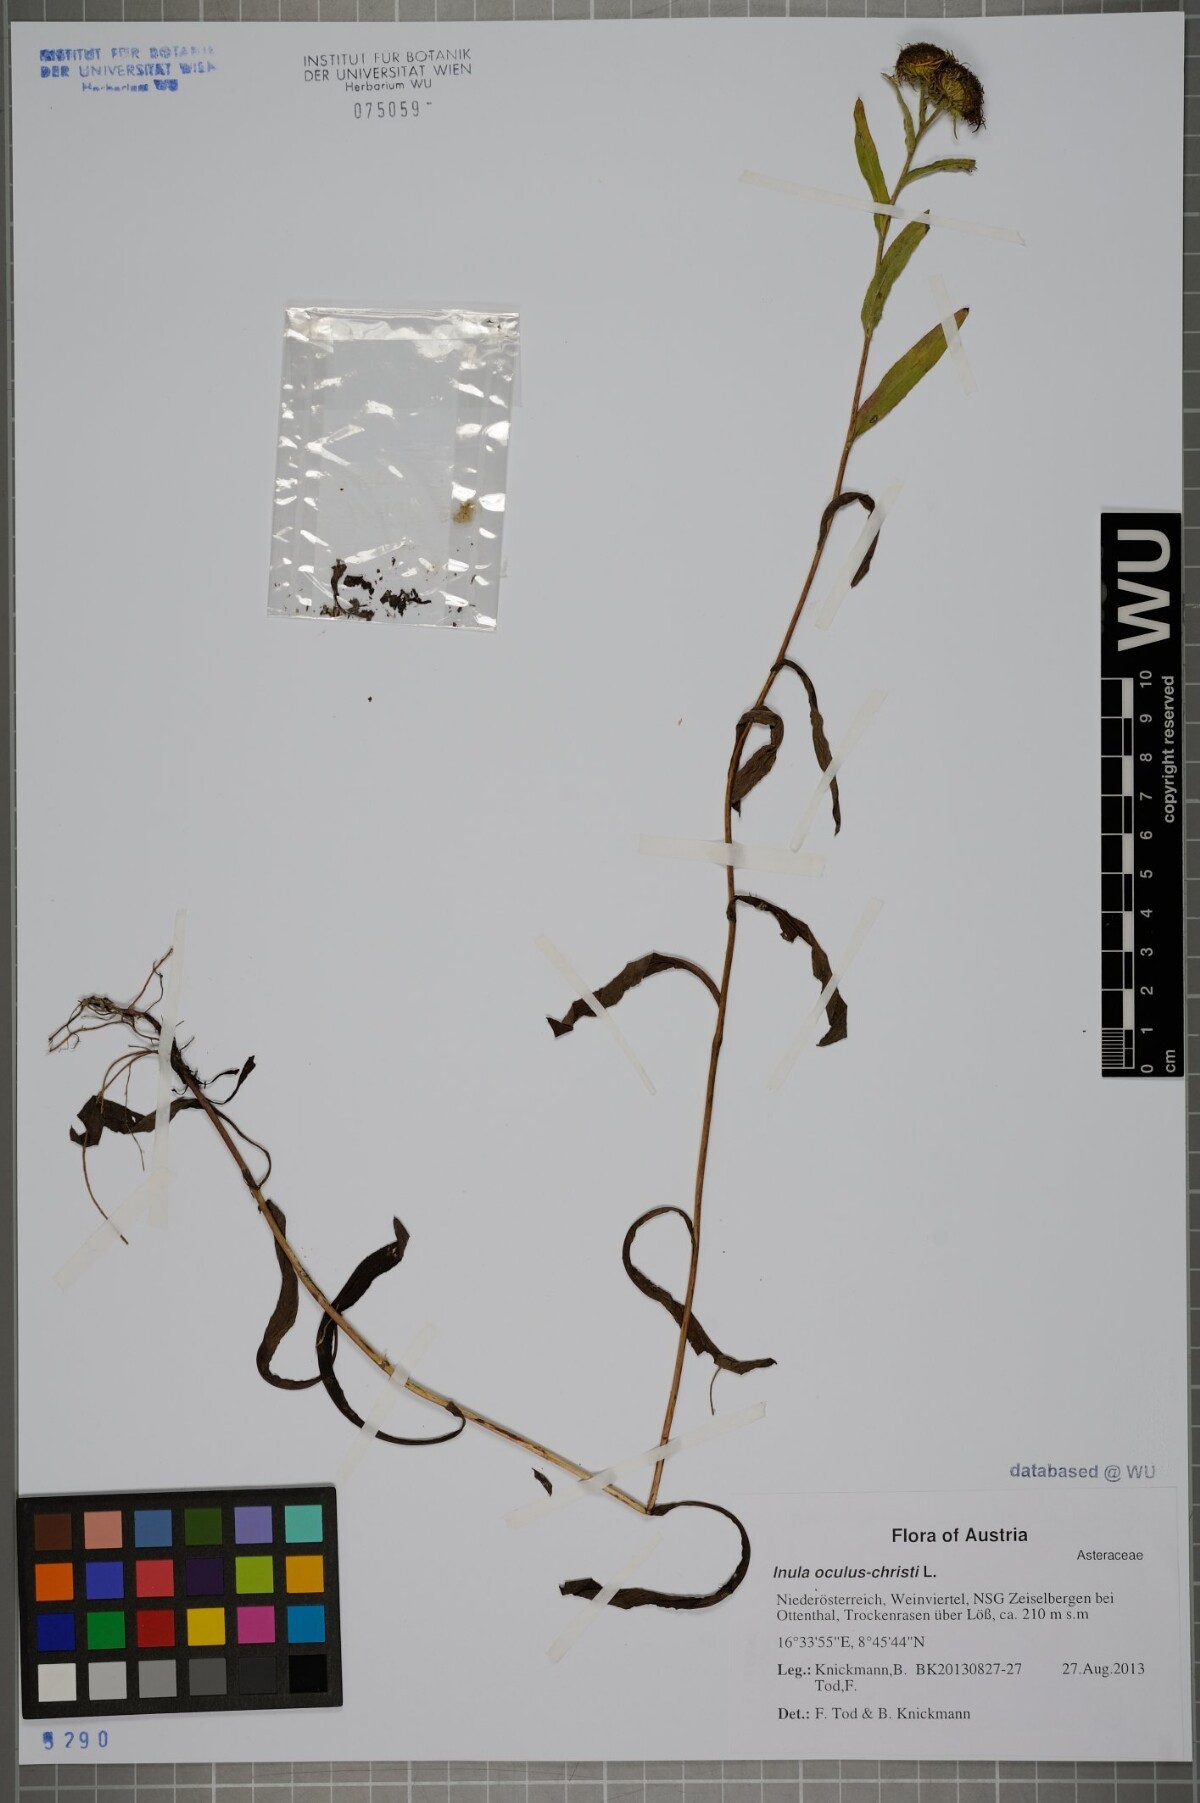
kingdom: Plantae
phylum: Tracheophyta
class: Magnoliopsida
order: Asterales
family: Asteraceae
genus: Pentanema
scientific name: Pentanema britannicum
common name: British elecampane
